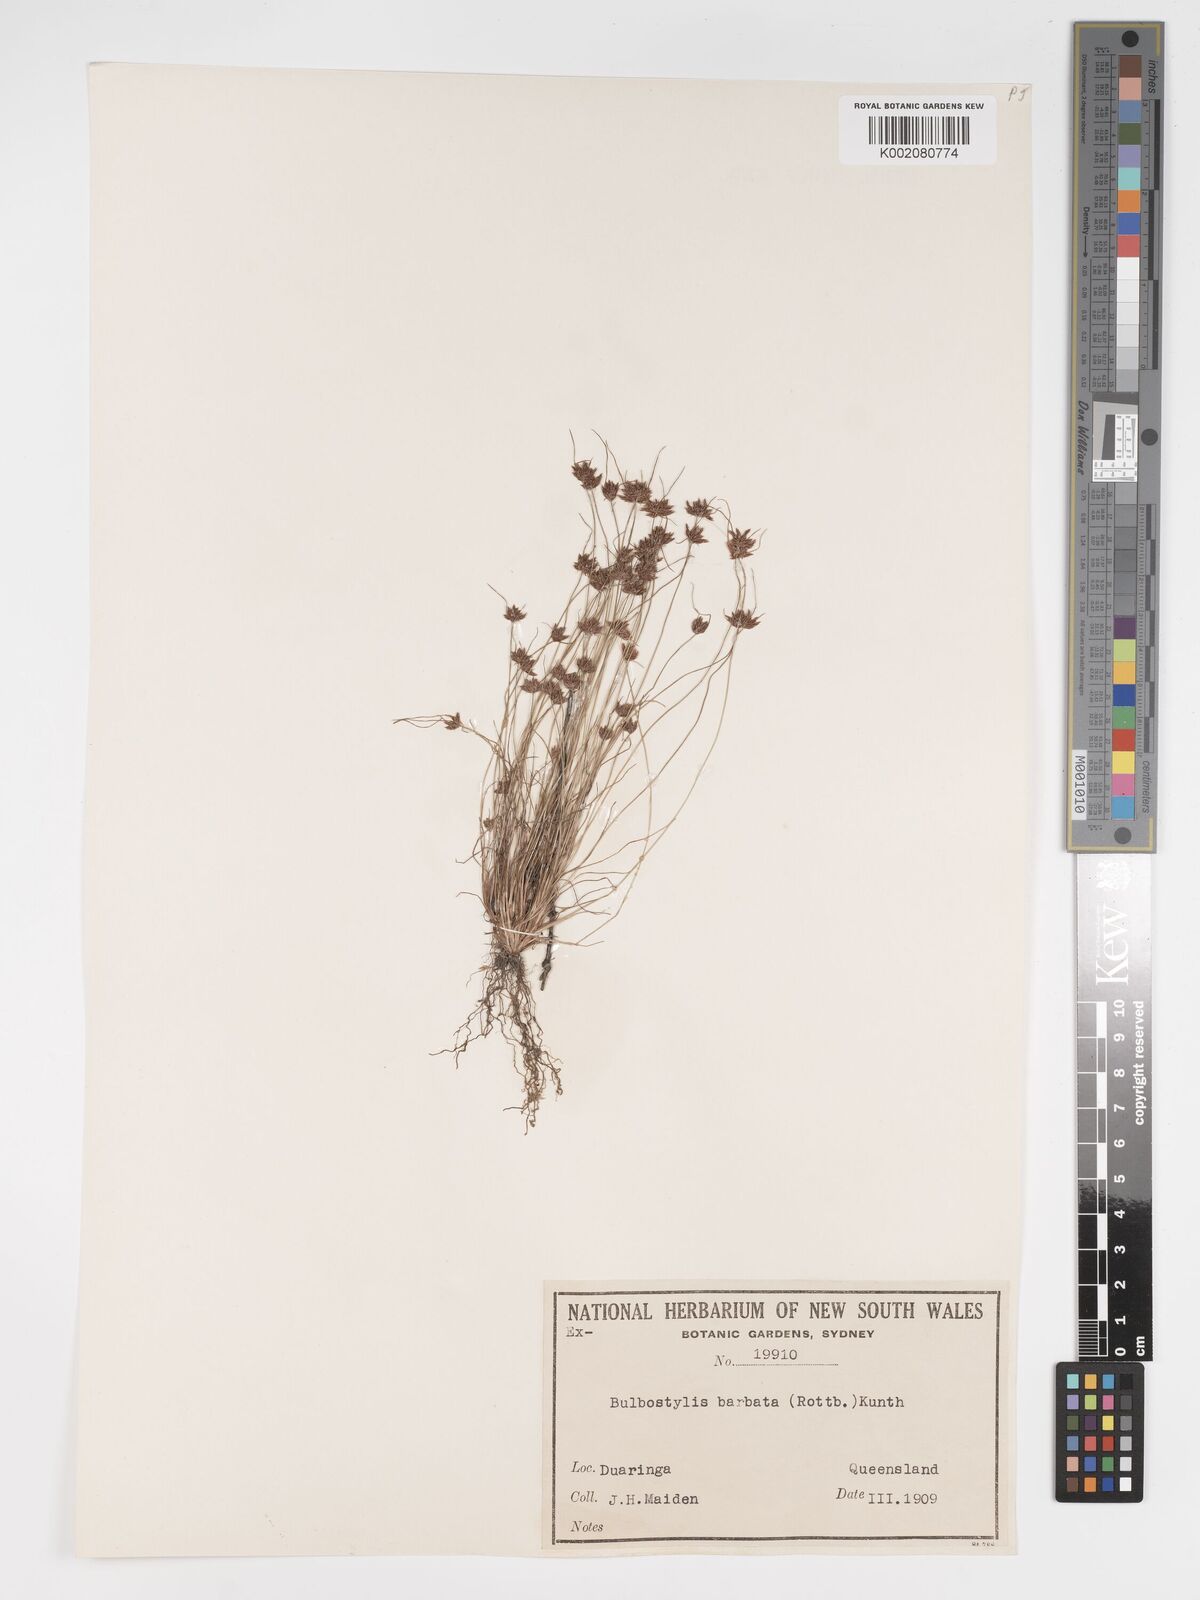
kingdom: Plantae
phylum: Tracheophyta
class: Liliopsida
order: Poales
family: Cyperaceae
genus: Bulbostylis
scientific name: Bulbostylis barbata
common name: Watergrass
